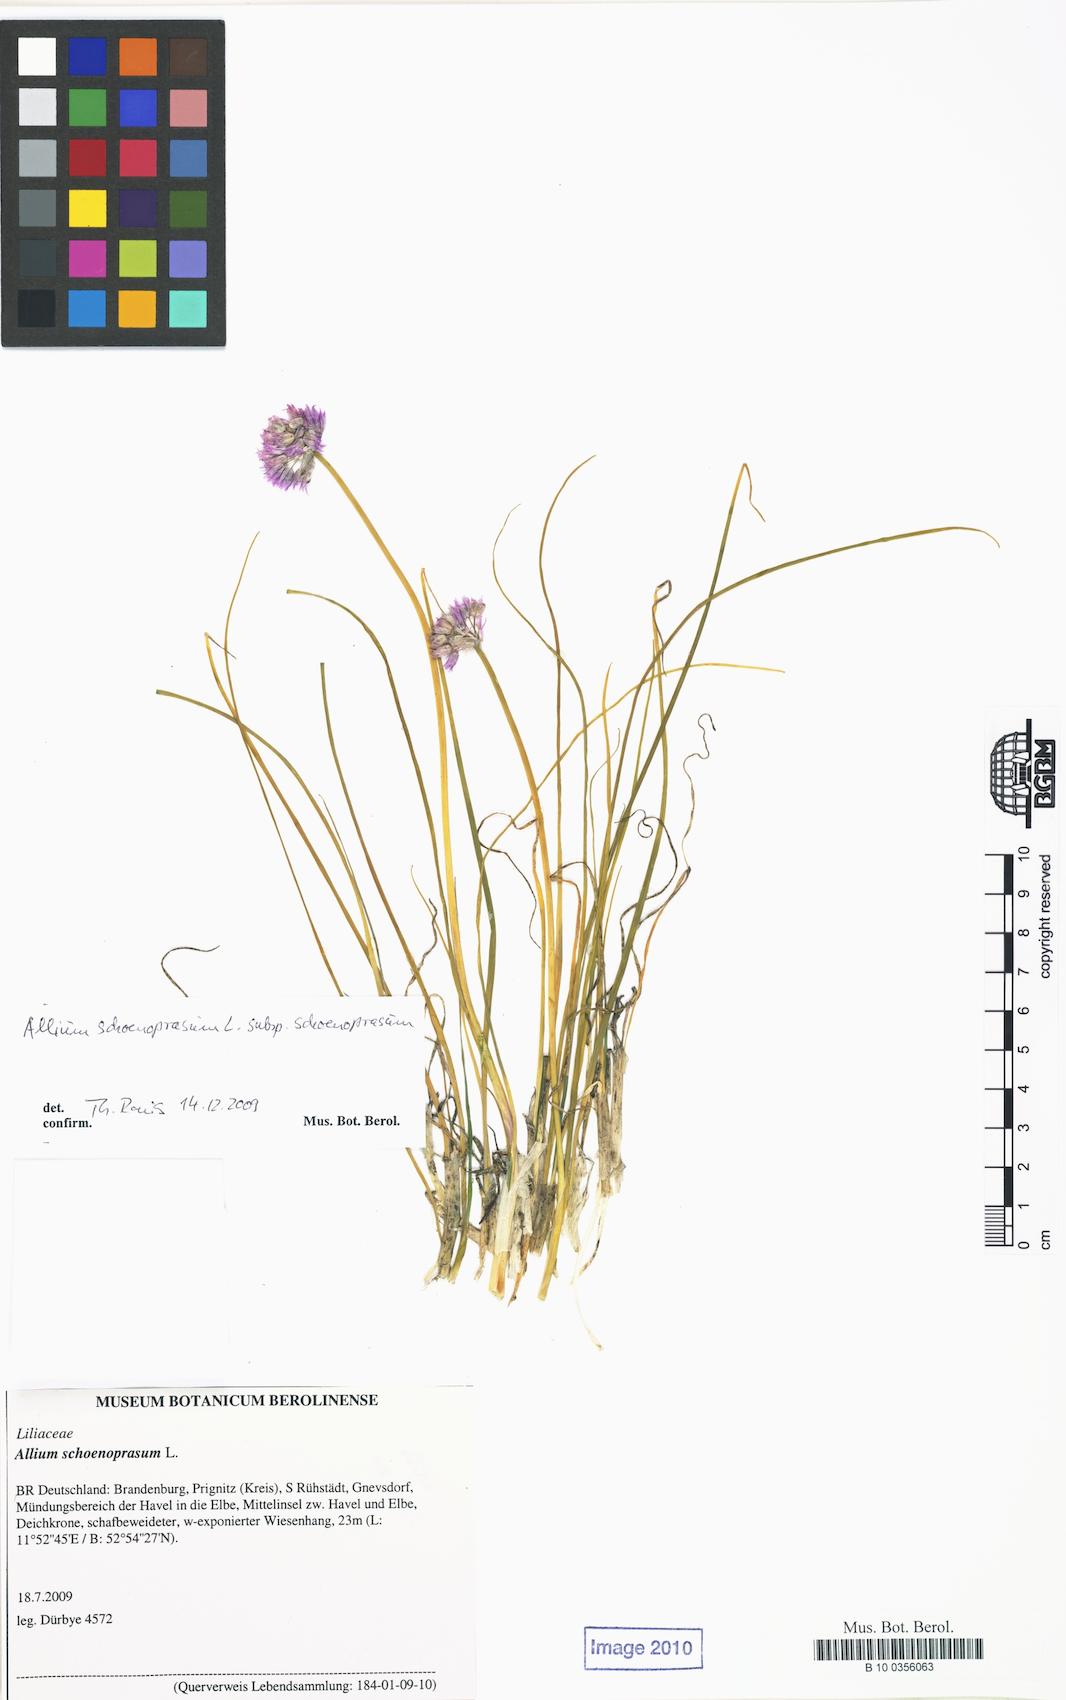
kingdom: Plantae
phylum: Tracheophyta
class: Liliopsida
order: Asparagales
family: Amaryllidaceae
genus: Allium
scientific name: Allium schoenoprasum
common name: Chives
